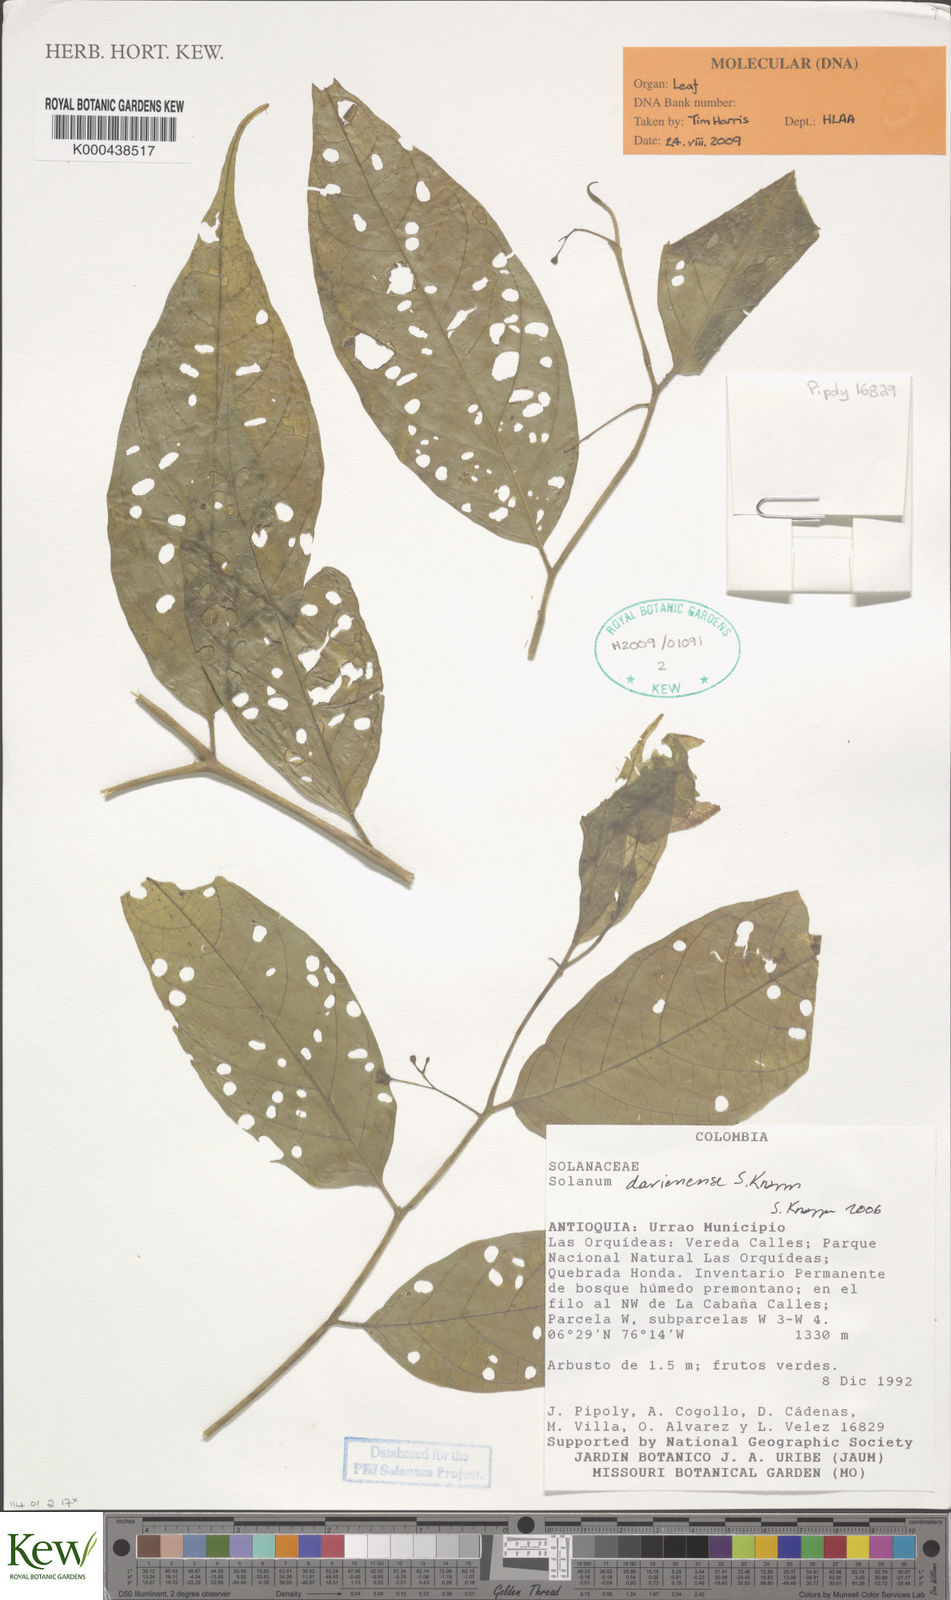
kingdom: Plantae
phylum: Tracheophyta
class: Magnoliopsida
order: Solanales
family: Solanaceae
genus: Solanum
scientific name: Solanum darienense
